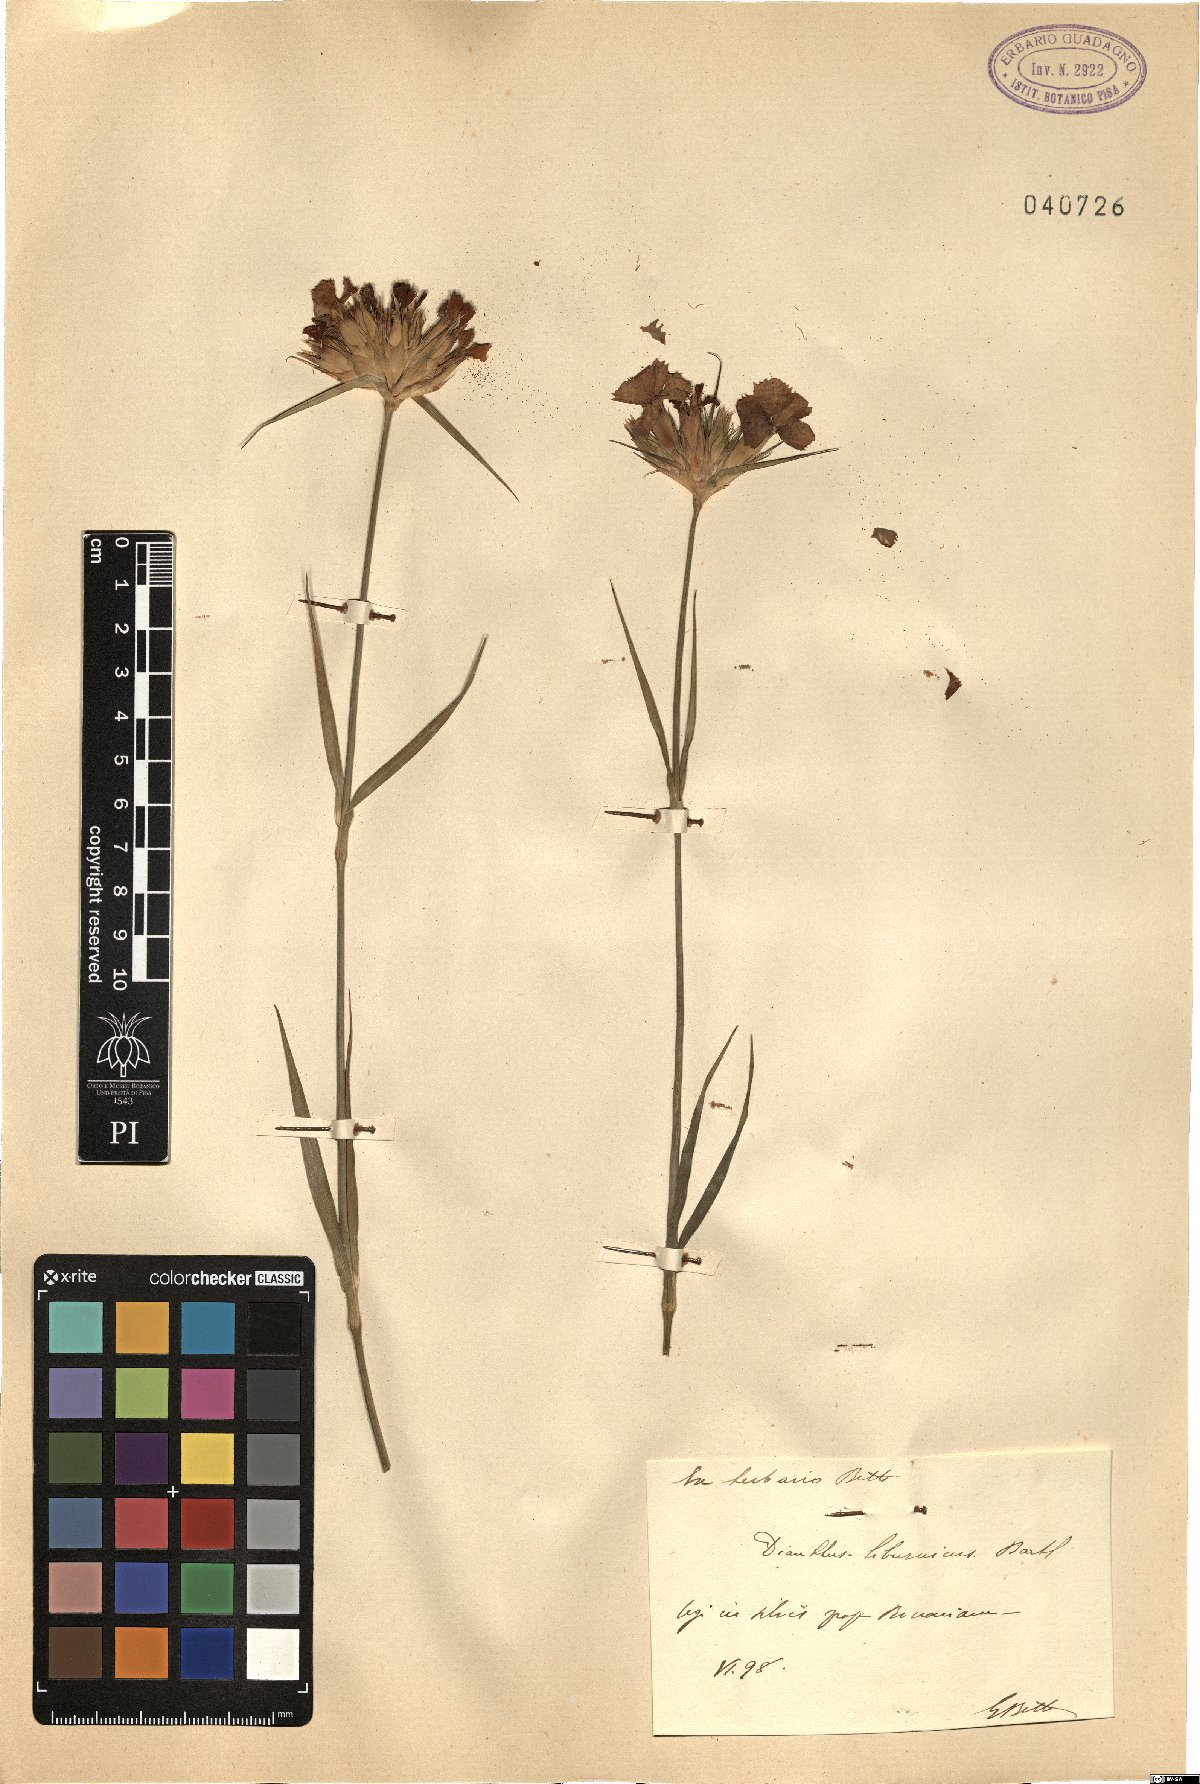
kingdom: Plantae
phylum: Tracheophyta
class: Magnoliopsida
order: Caryophyllales
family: Caryophyllaceae
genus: Dianthus
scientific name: Dianthus balbisii
